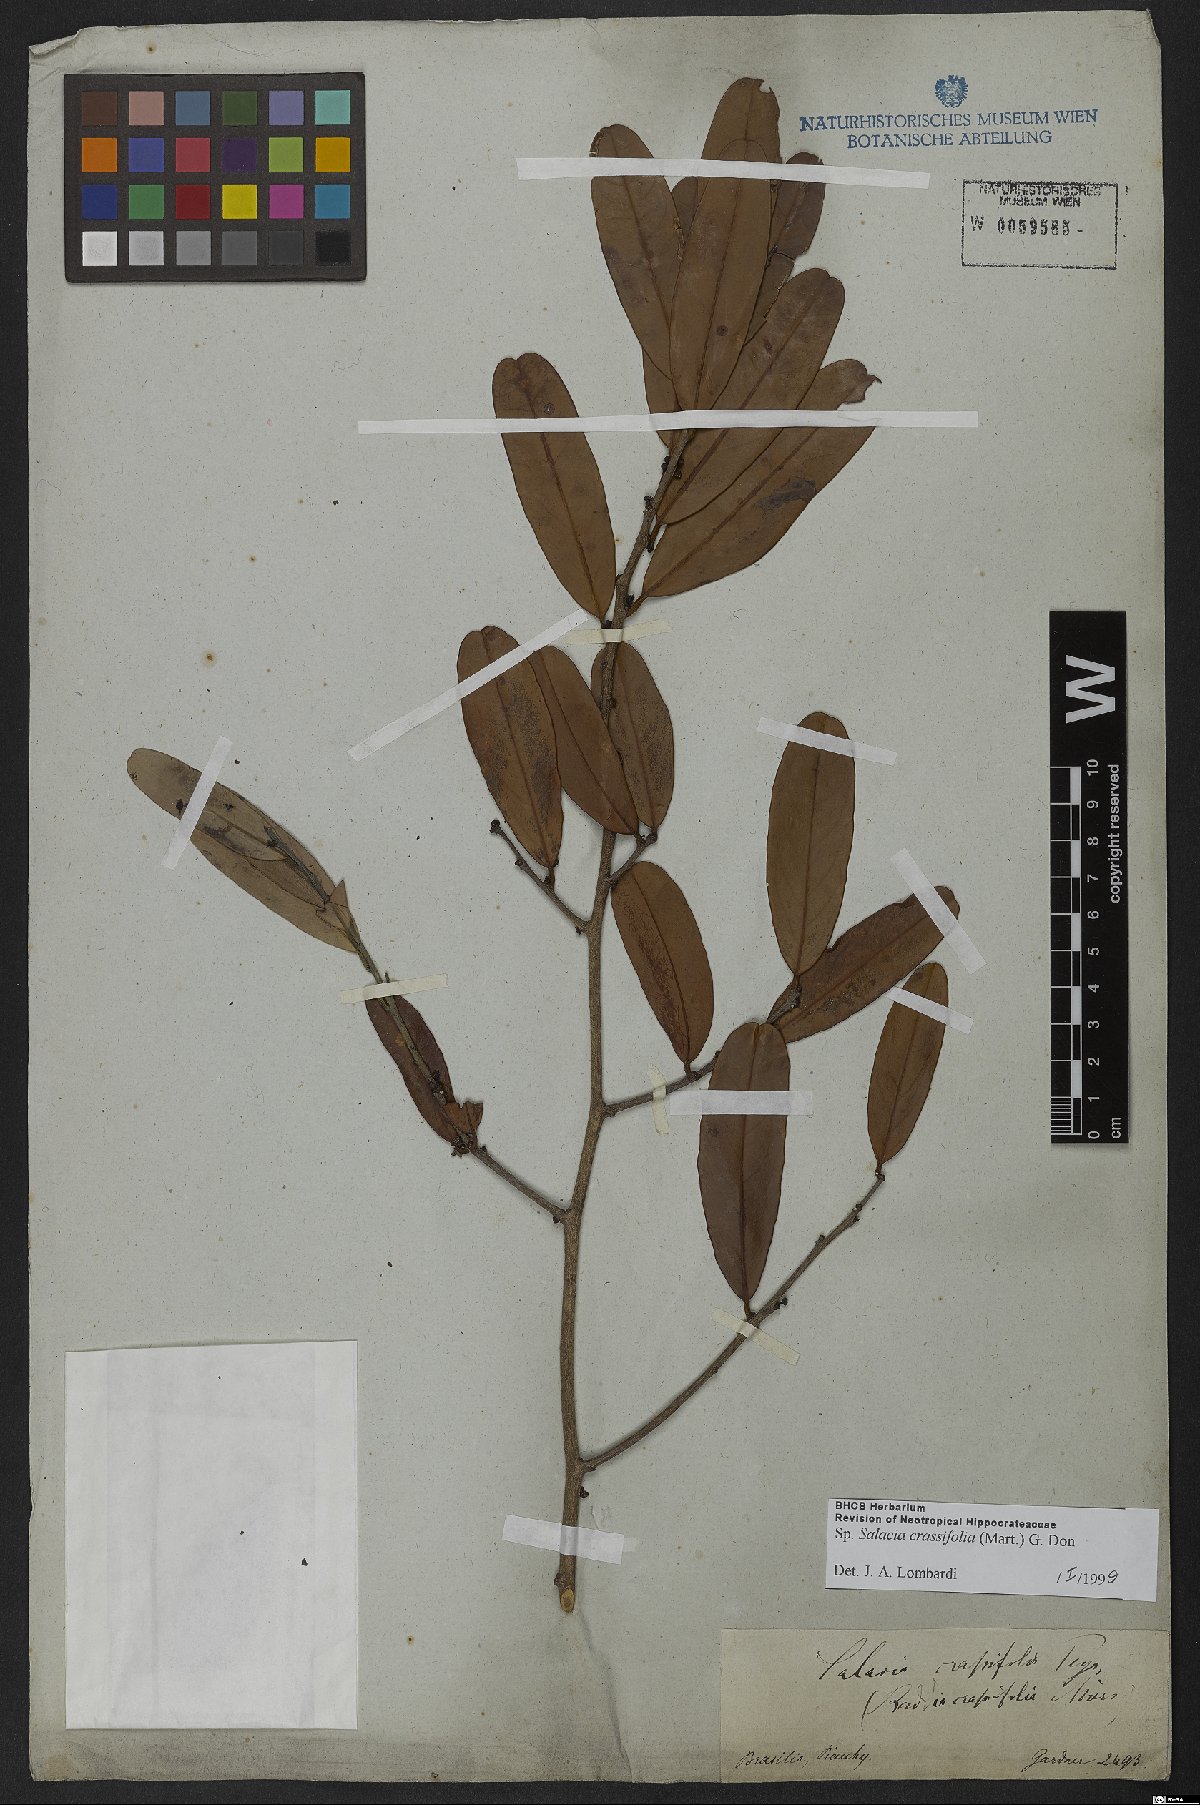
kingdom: Plantae
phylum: Tracheophyta
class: Magnoliopsida
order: Celastrales
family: Celastraceae
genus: Salacia
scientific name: Salacia crassifolia
